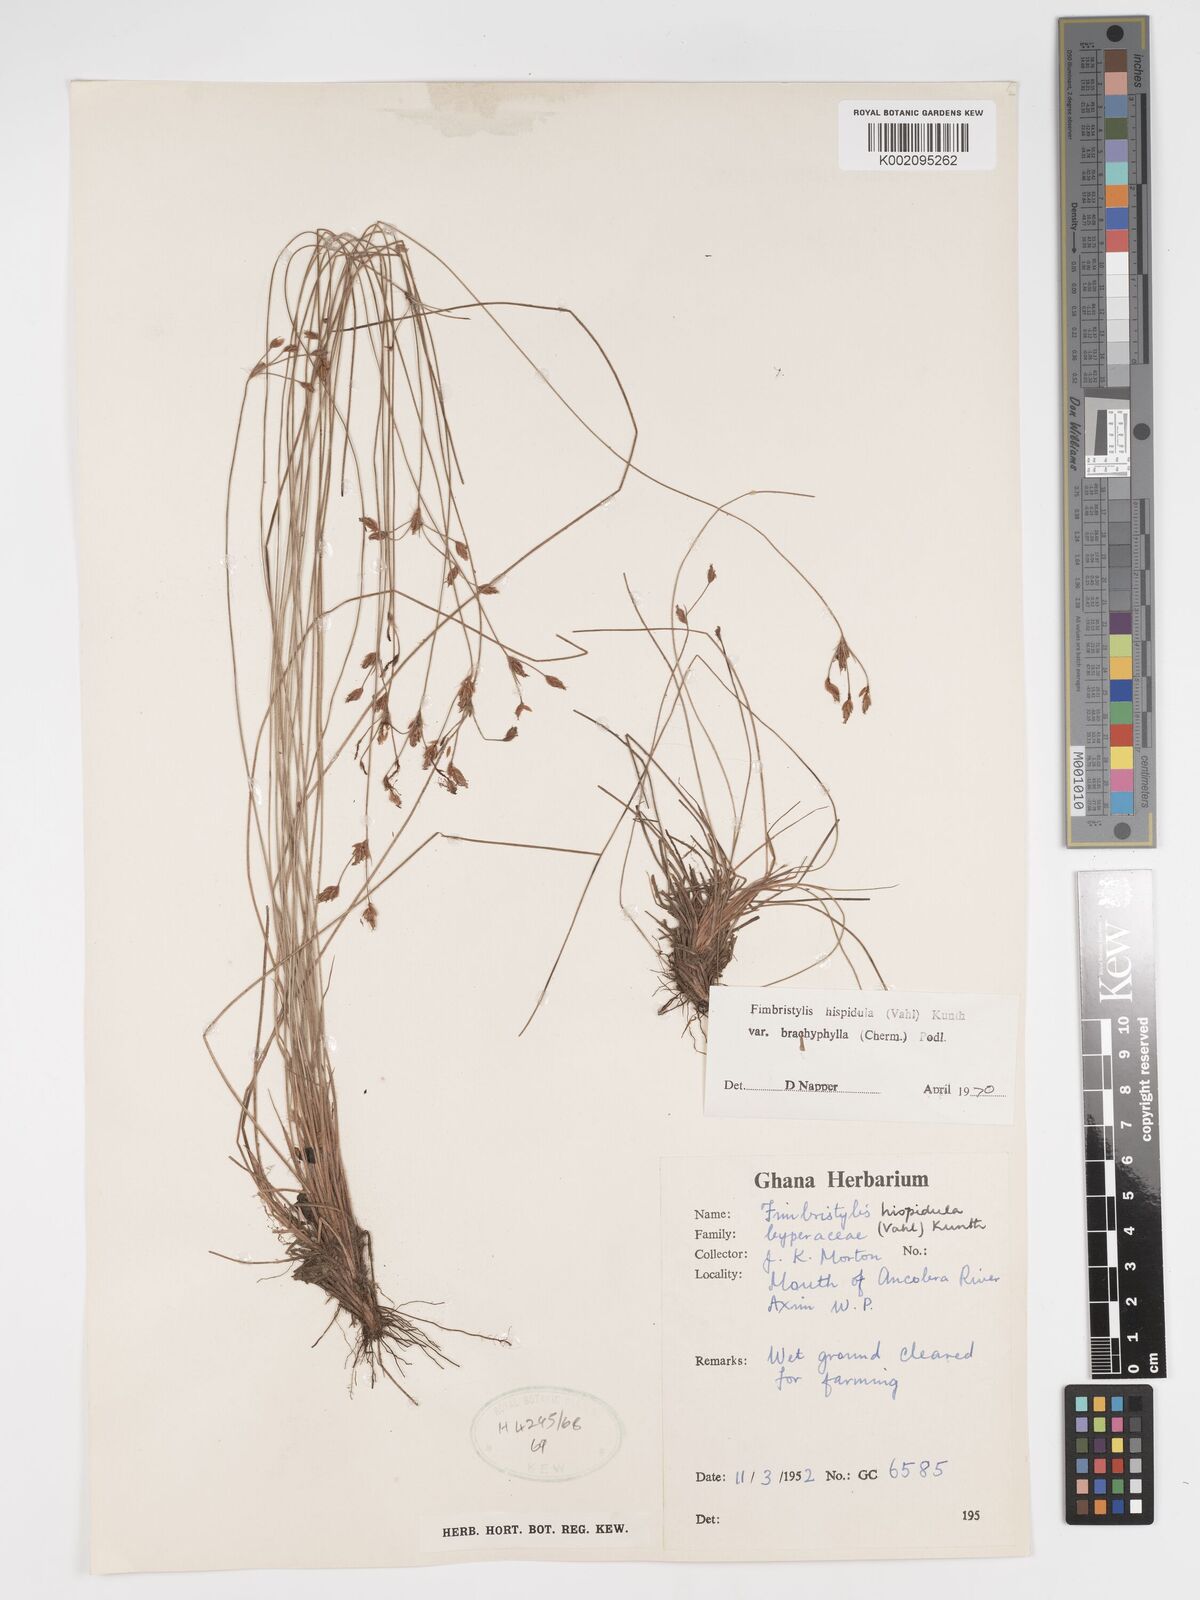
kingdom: Plantae
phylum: Tracheophyta
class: Liliopsida
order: Poales
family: Cyperaceae
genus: Bulbostylis
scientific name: Bulbostylis hispidula
